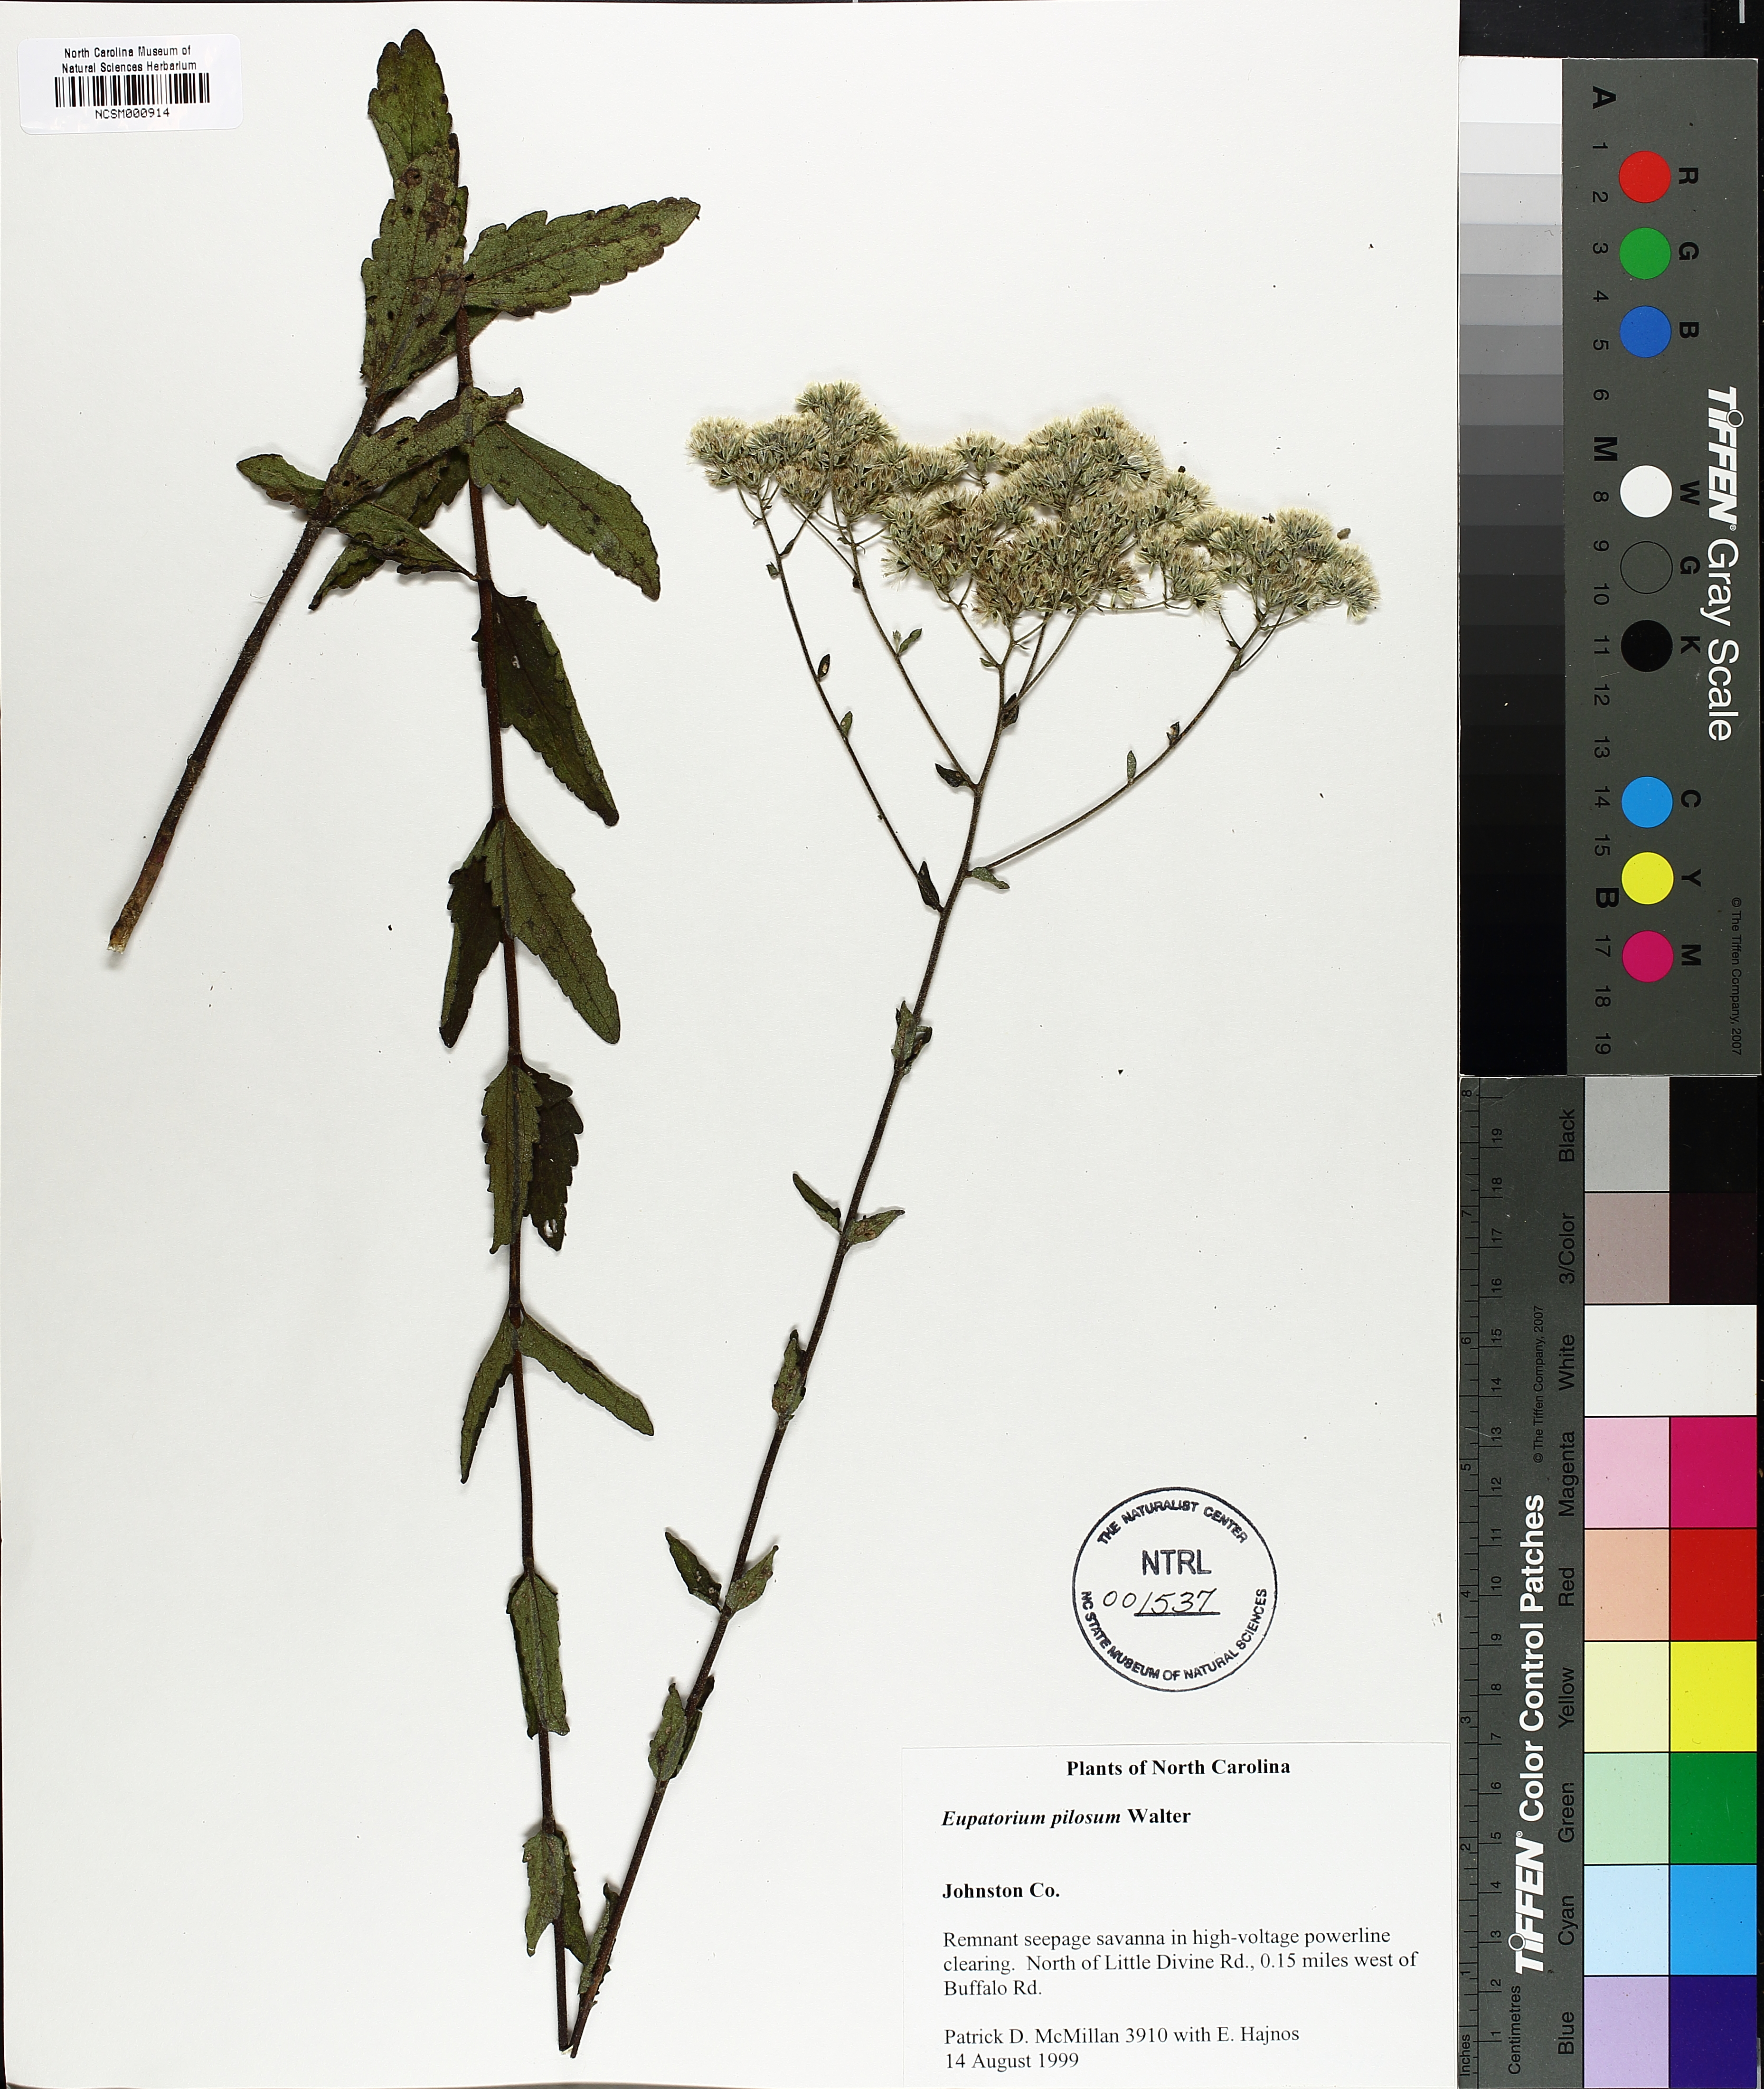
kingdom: Plantae
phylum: Tracheophyta
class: Magnoliopsida
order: Asterales
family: Asteraceae
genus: Eupatorium
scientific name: Eupatorium pilosum
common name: Rough boneset
